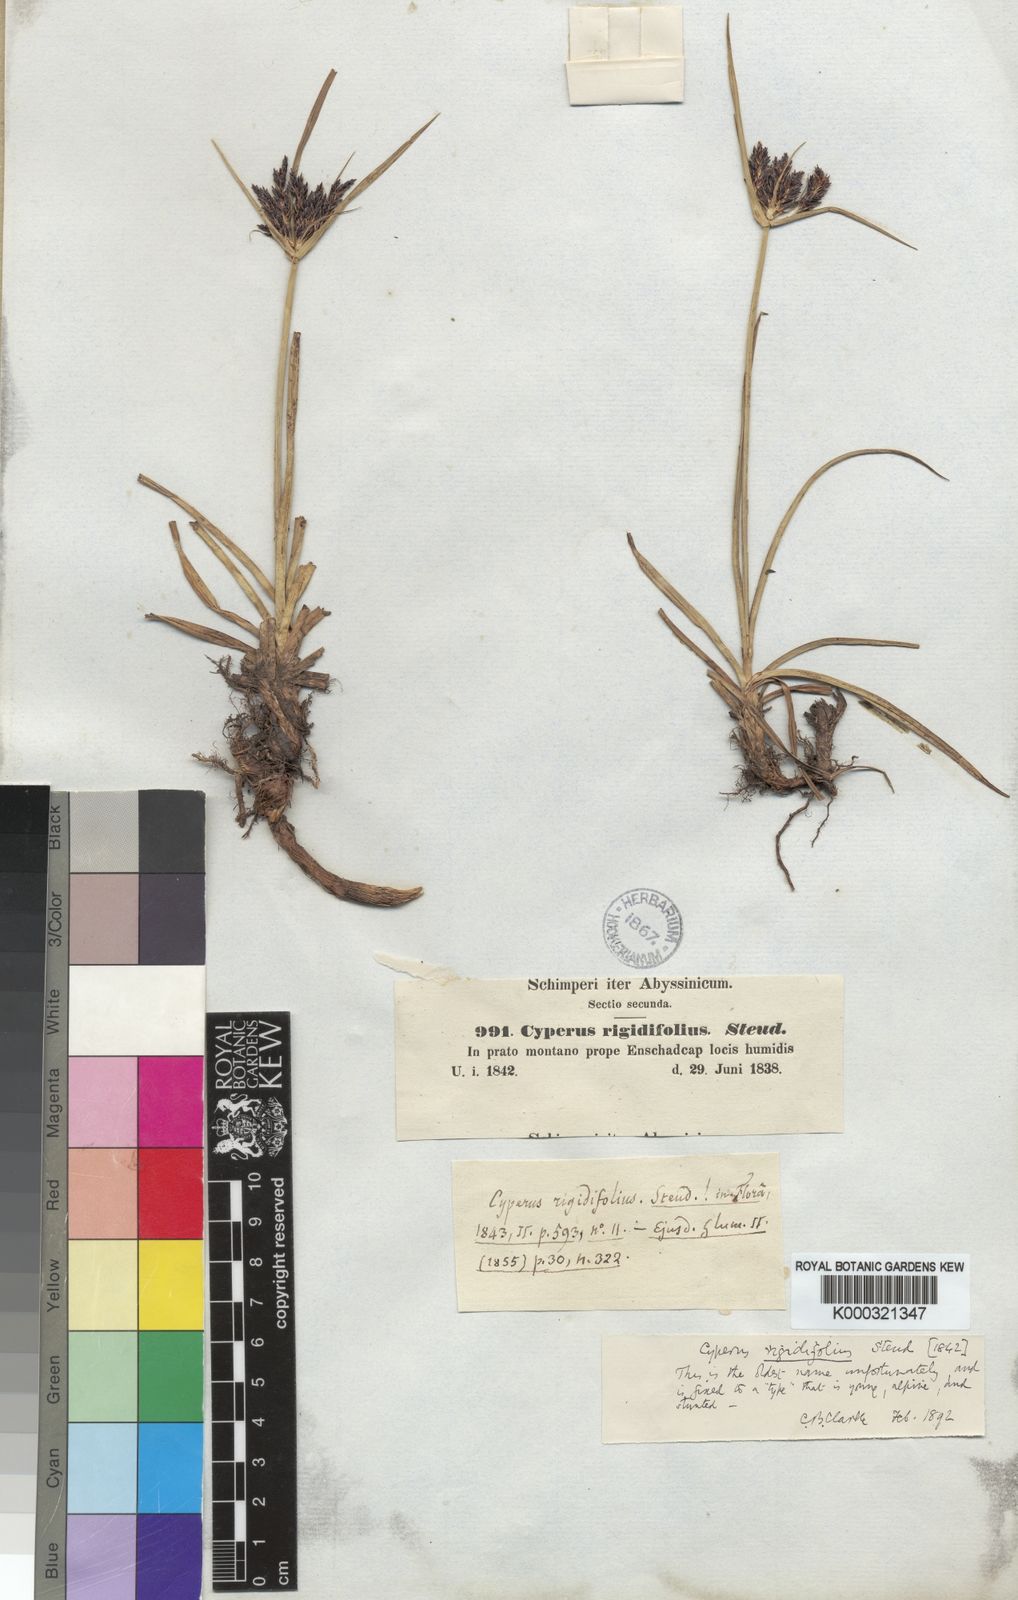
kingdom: Plantae
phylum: Tracheophyta
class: Liliopsida
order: Poales
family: Cyperaceae
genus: Cyperus
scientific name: Cyperus rigidifolius
